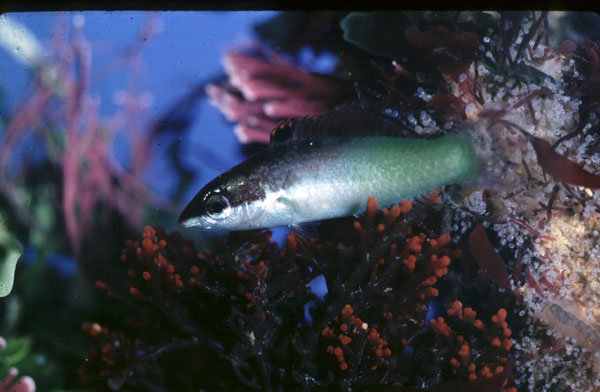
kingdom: Animalia
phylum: Chordata
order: Perciformes
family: Labridae
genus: Gomphosus
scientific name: Gomphosus varius
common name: Bird wrasse
